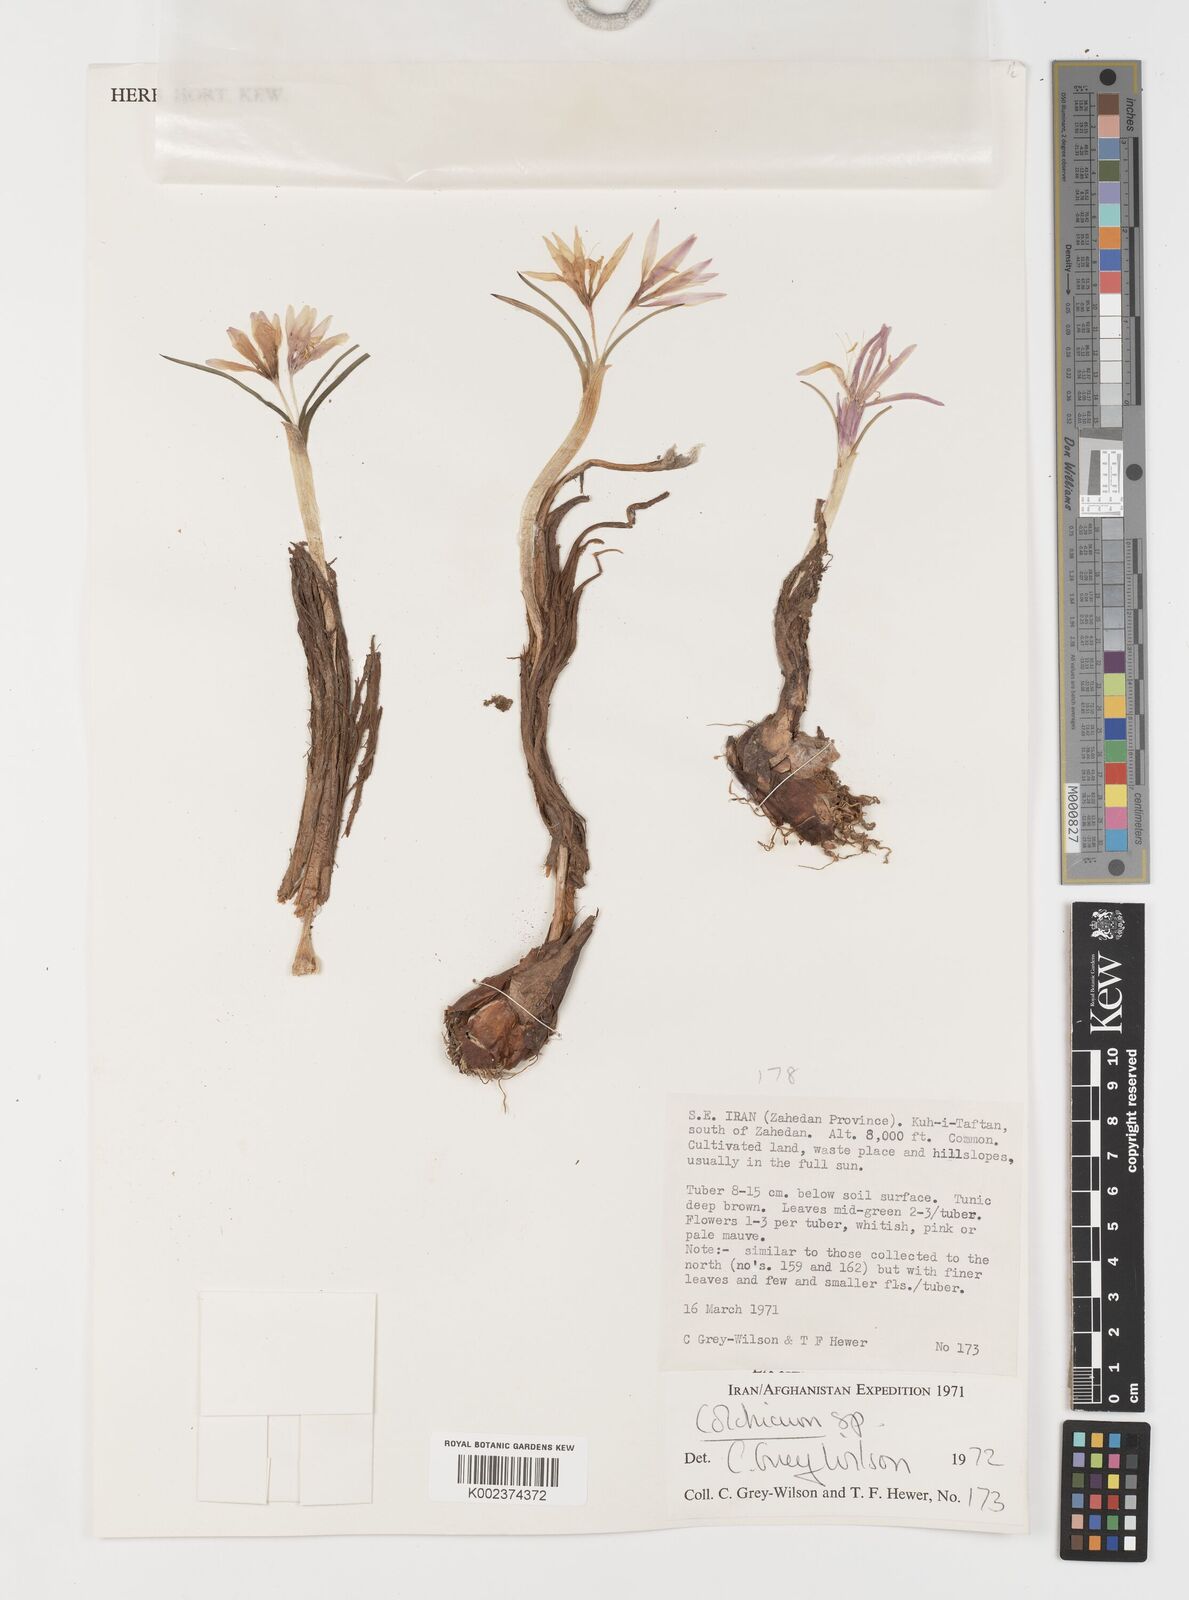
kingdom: Plantae
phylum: Tracheophyta
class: Liliopsida
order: Liliales
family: Colchicaceae
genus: Colchicum
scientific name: Colchicum
